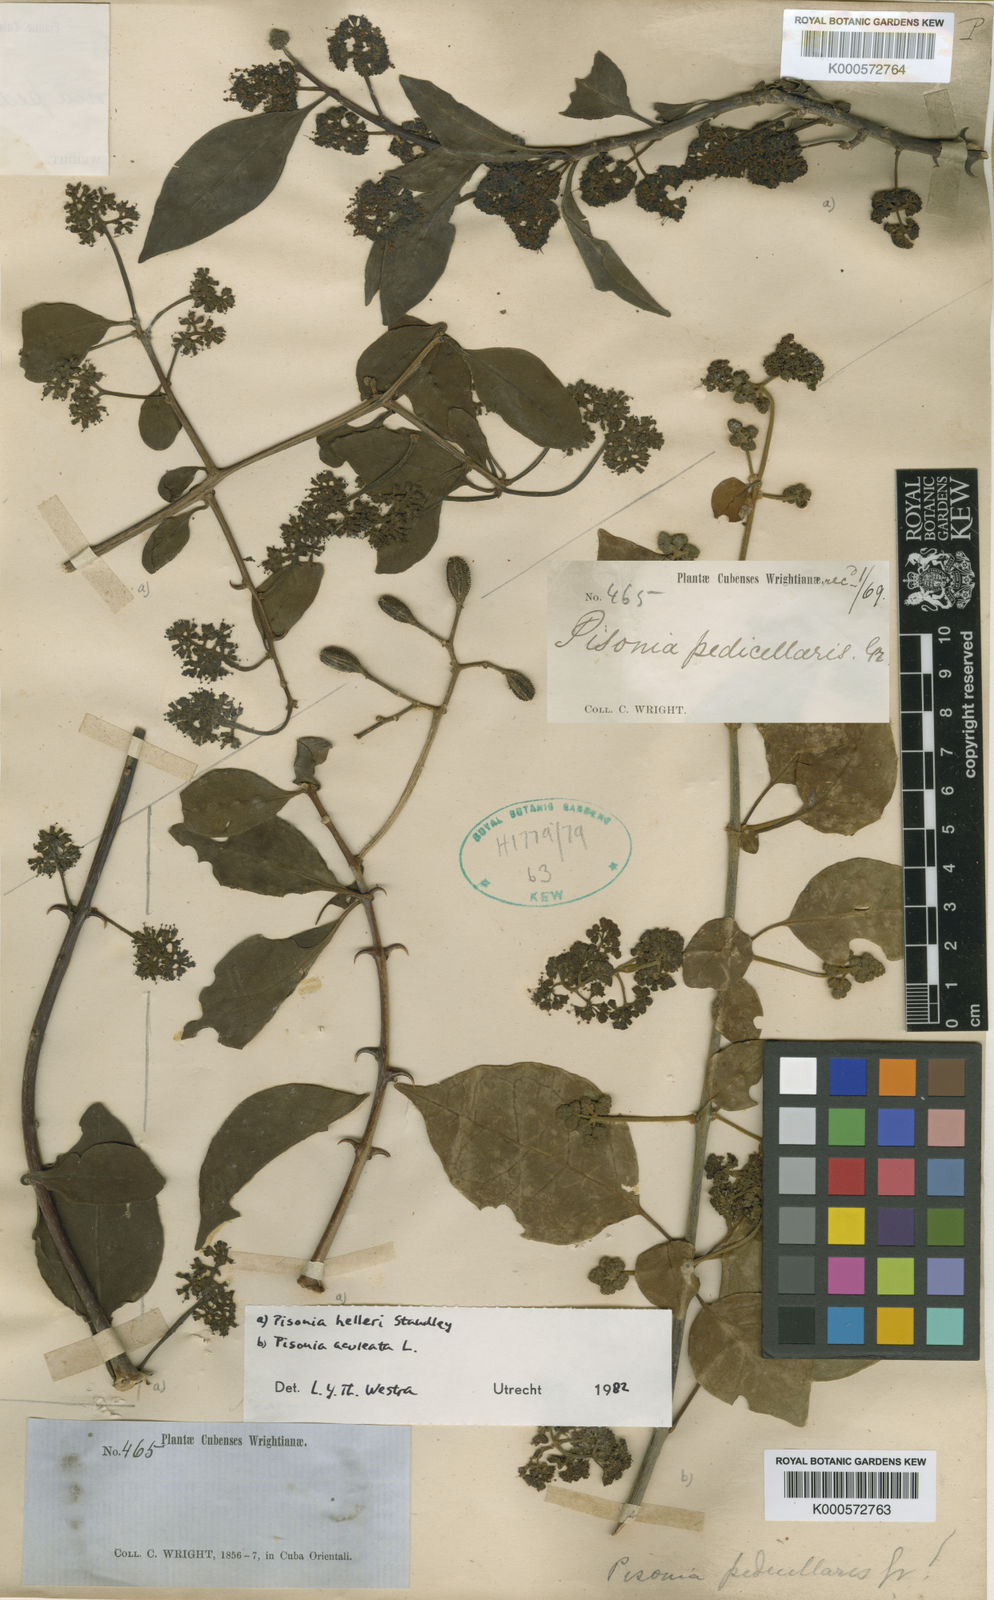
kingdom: Plantae
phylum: Tracheophyta
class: Magnoliopsida
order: Caryophyllales
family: Nyctaginaceae
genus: Pisonia
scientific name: Pisonia aculeata
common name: Cockspur vine
